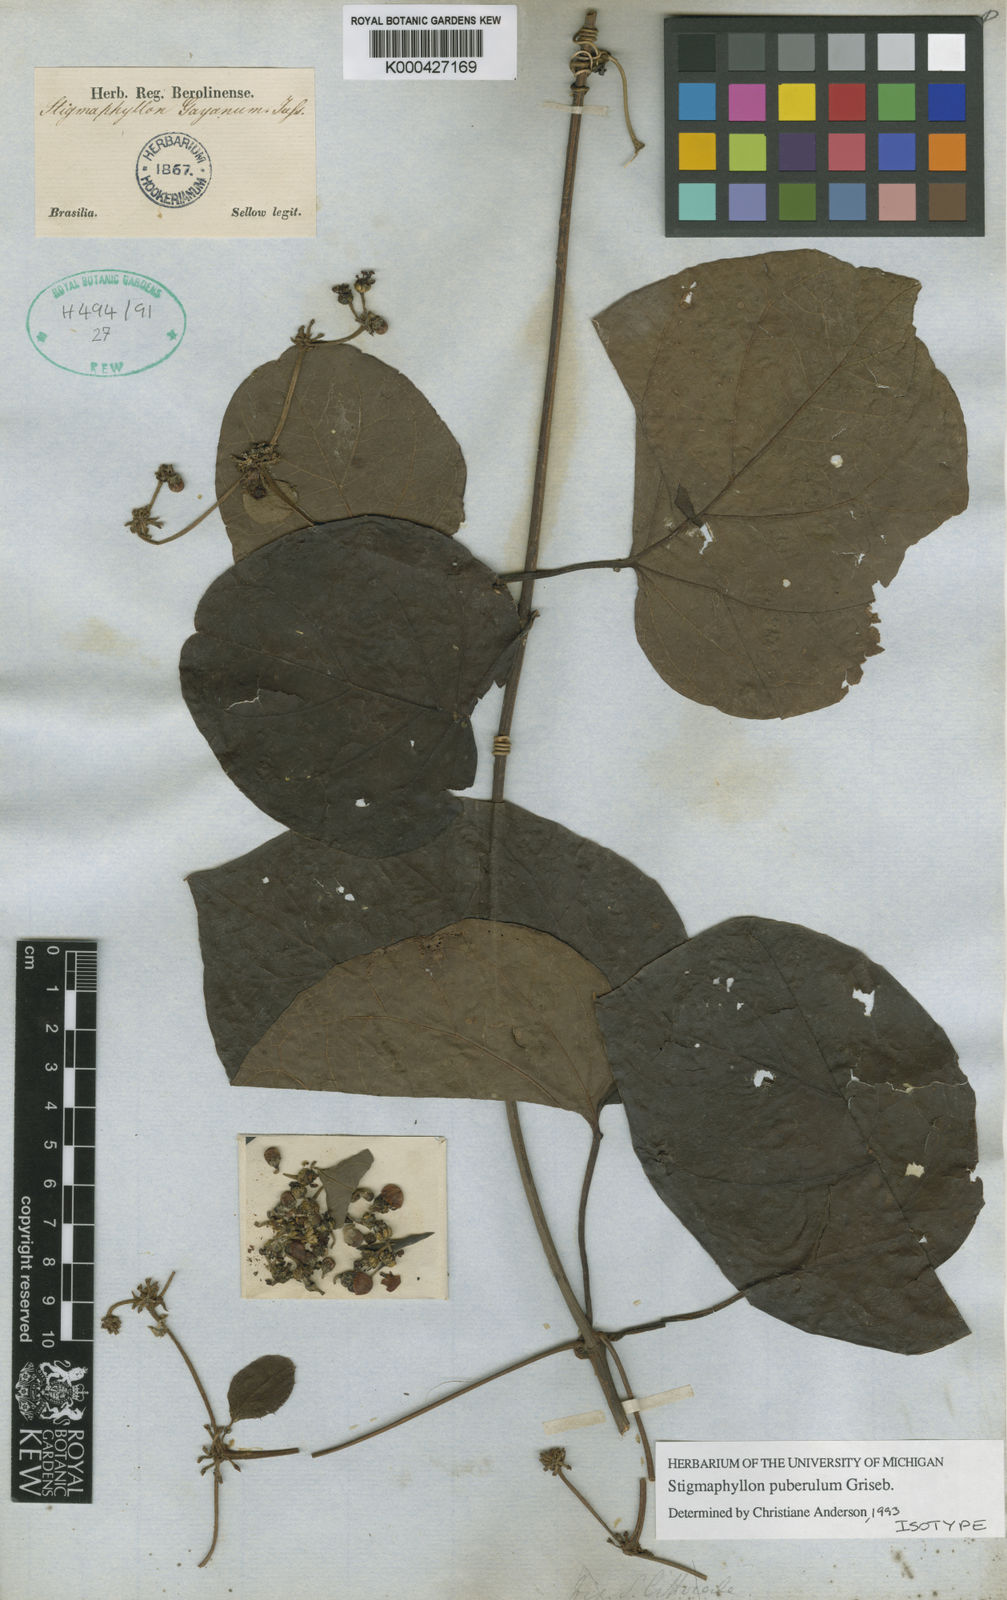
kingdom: Plantae
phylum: Tracheophyta
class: Magnoliopsida
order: Malpighiales
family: Malpighiaceae
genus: Stigmaphyllon
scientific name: Stigmaphyllon puberulum
